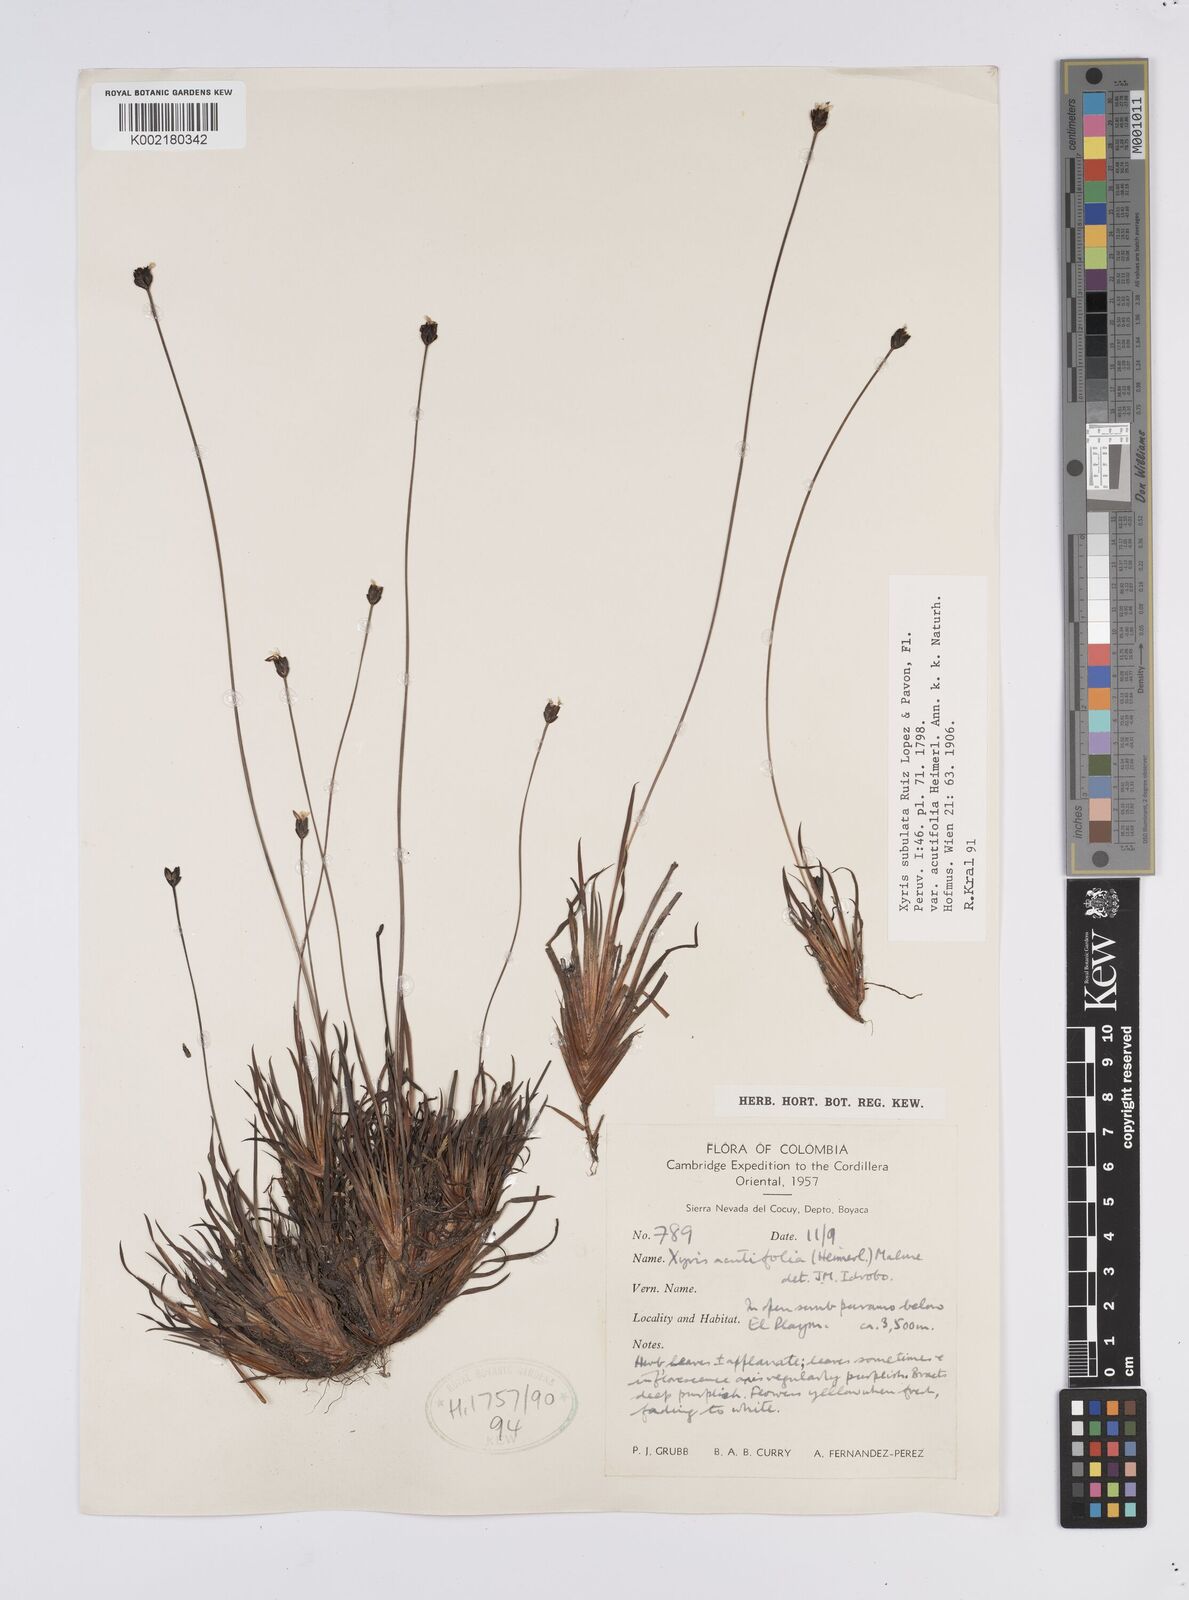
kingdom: Plantae
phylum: Tracheophyta
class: Liliopsida
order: Poales
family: Xyridaceae
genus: Xyris
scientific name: Xyris subulata
